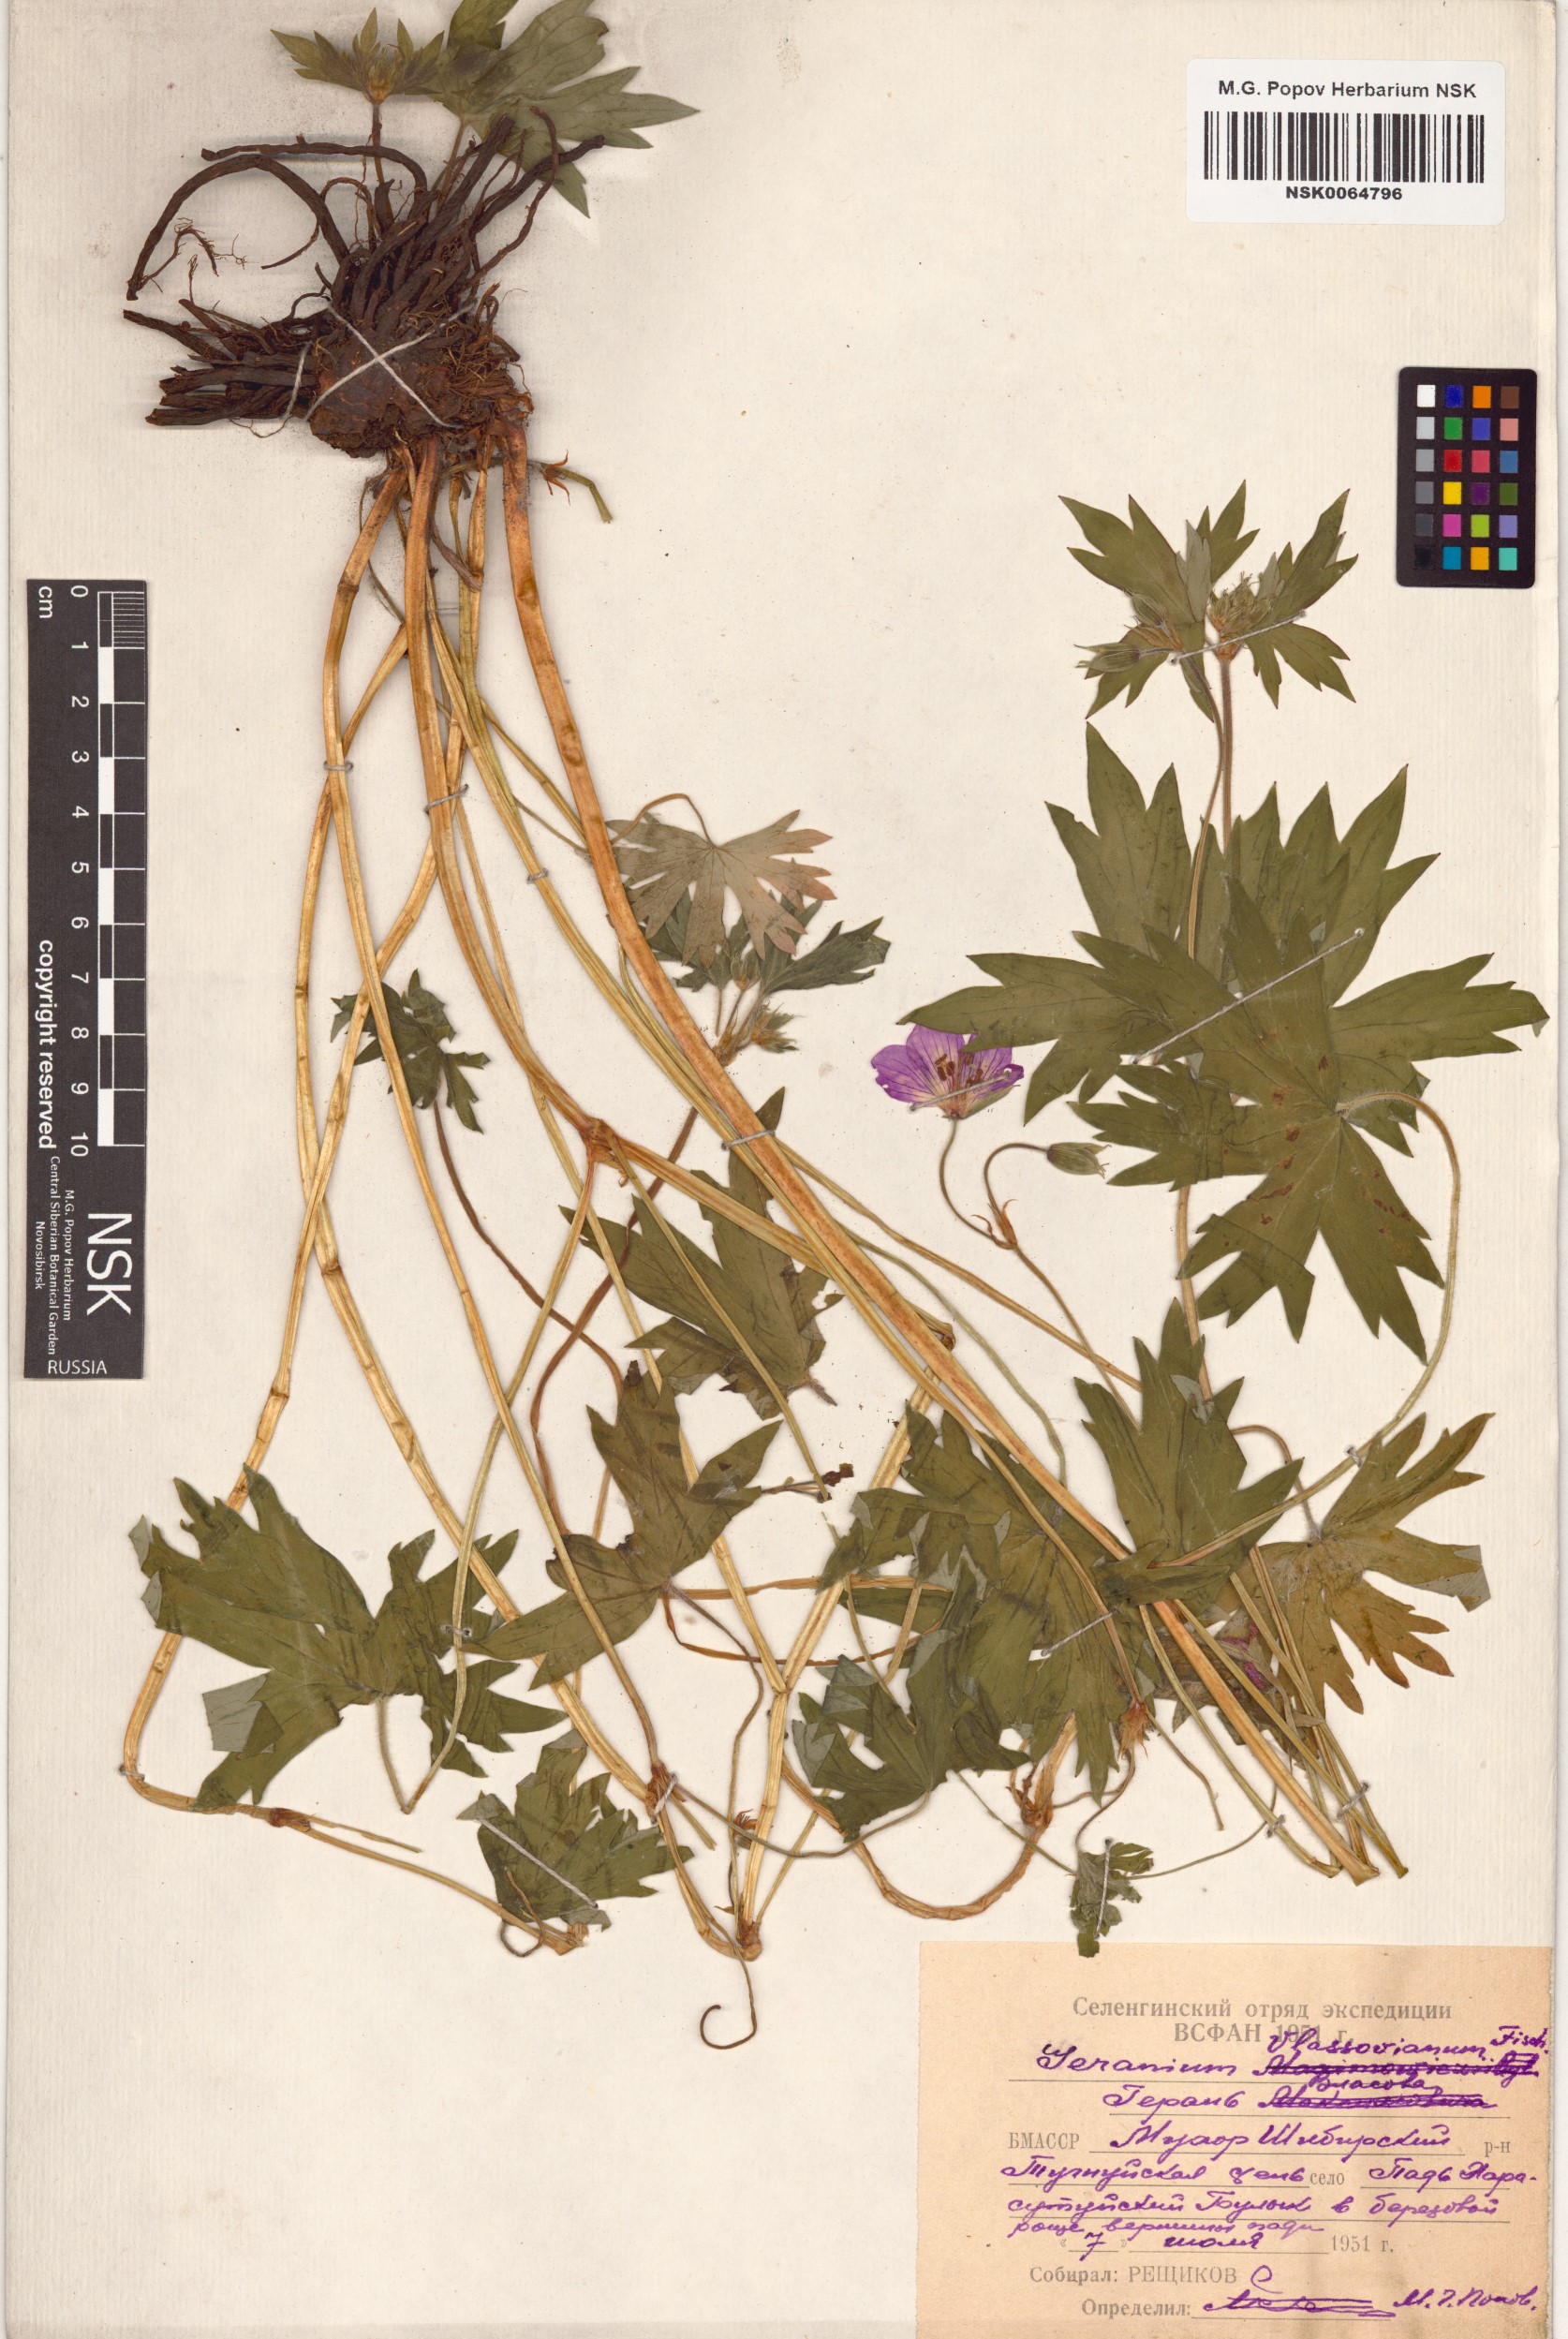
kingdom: Plantae
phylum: Tracheophyta
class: Magnoliopsida
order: Geraniales
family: Geraniaceae
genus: Geranium
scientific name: Geranium wlassovianum
